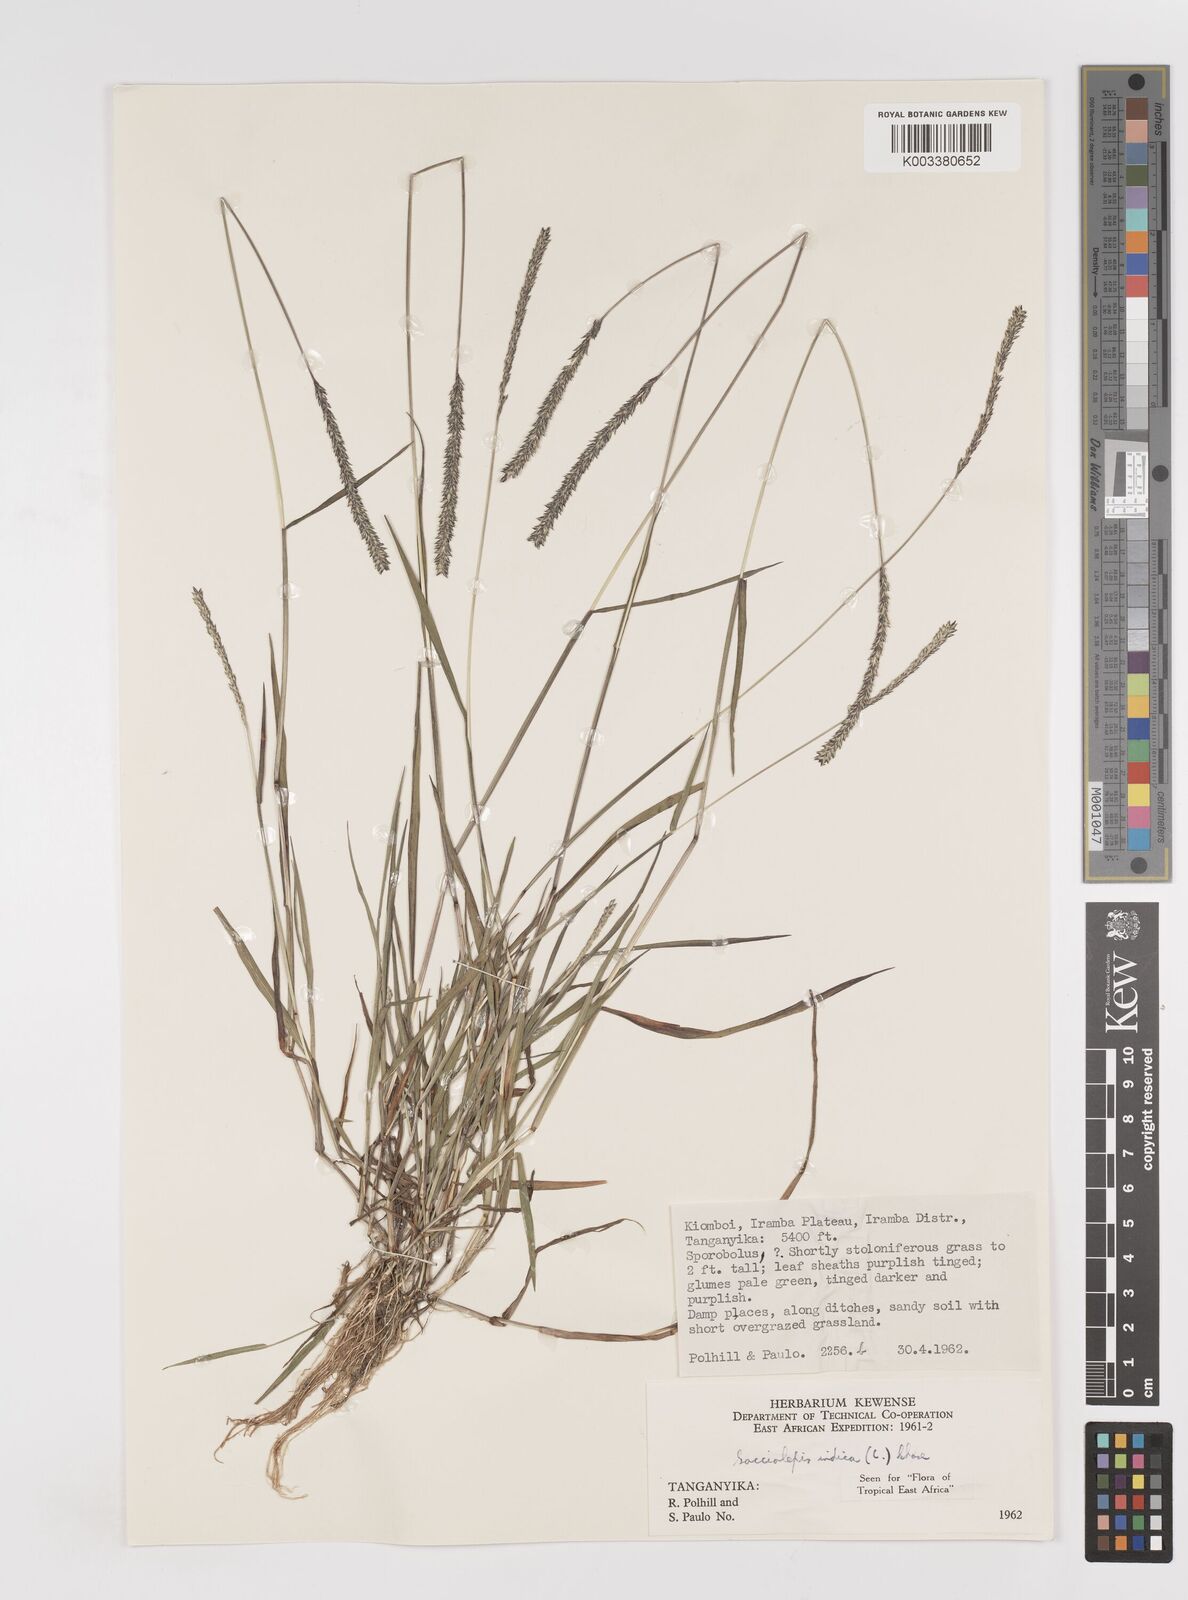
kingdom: Plantae
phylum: Tracheophyta
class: Liliopsida
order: Poales
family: Poaceae
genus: Sacciolepis
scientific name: Sacciolepis indica
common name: Glenwoodgrass
